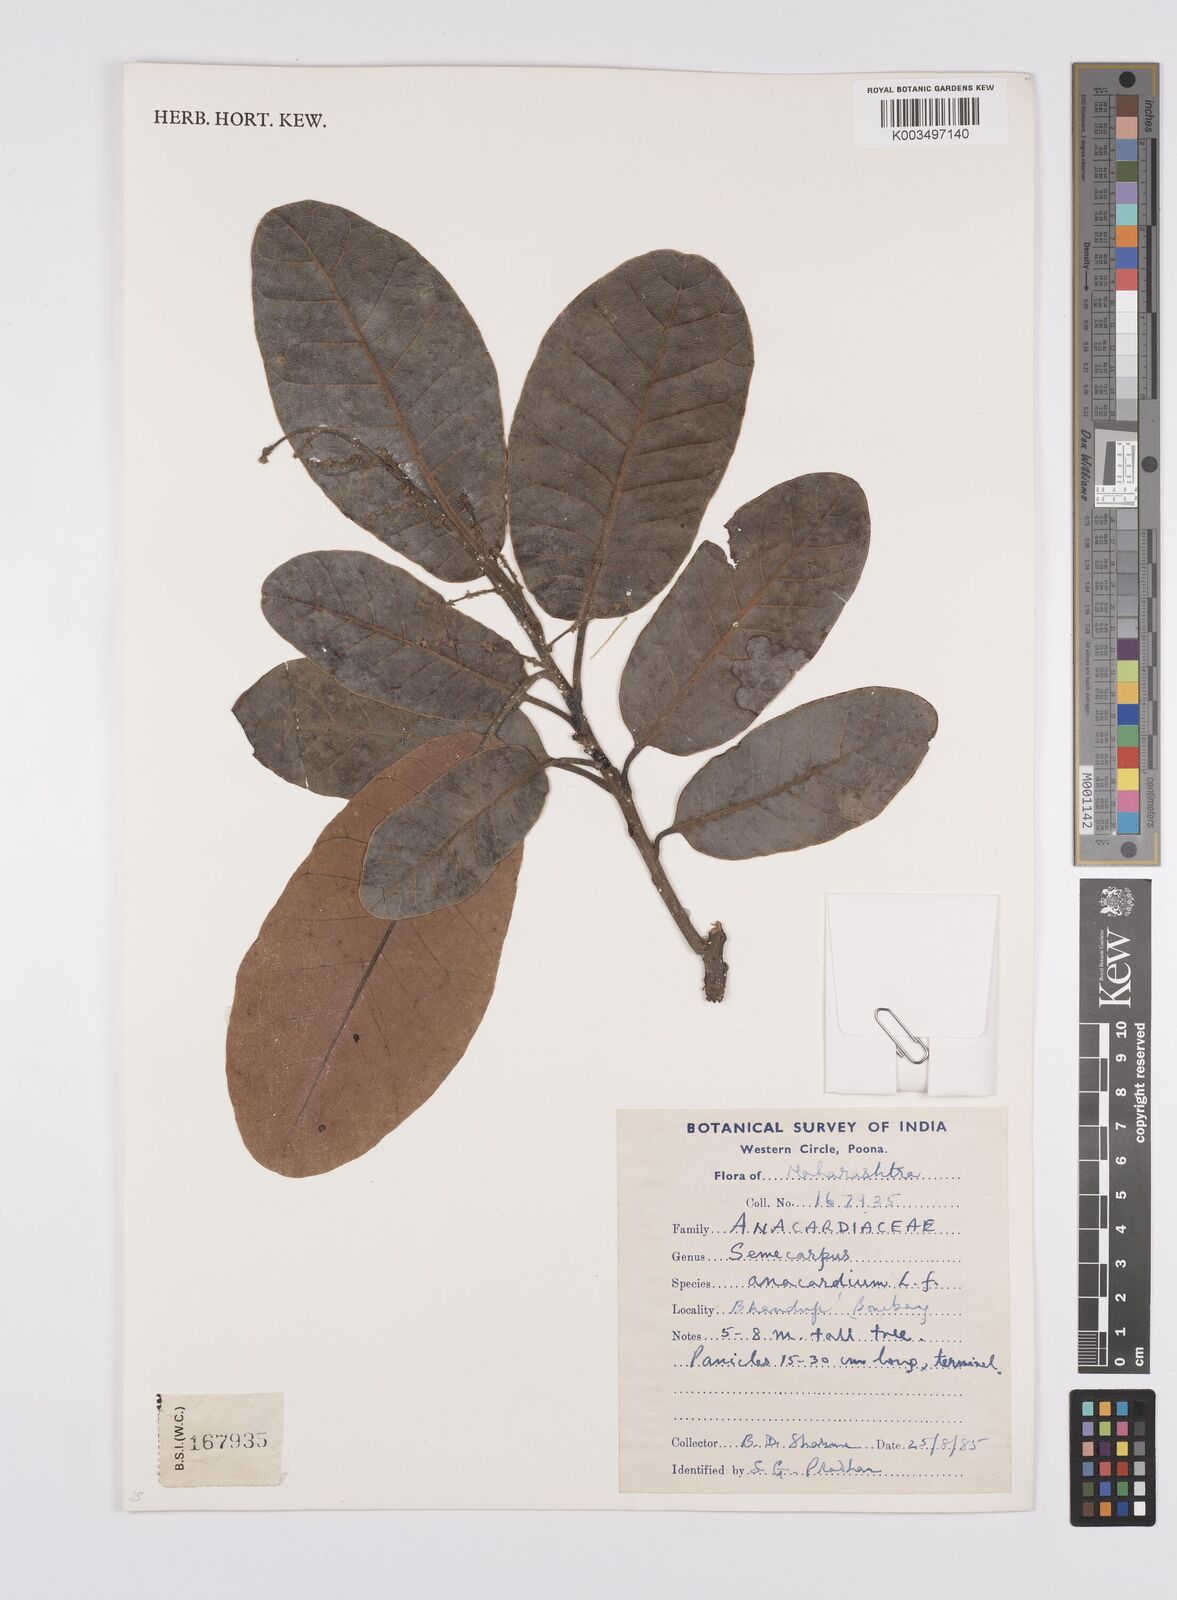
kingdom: Plantae
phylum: Tracheophyta
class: Magnoliopsida
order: Sapindales
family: Anacardiaceae
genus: Semecarpus
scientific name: Semecarpus anacardium
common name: Marking nut-tree
